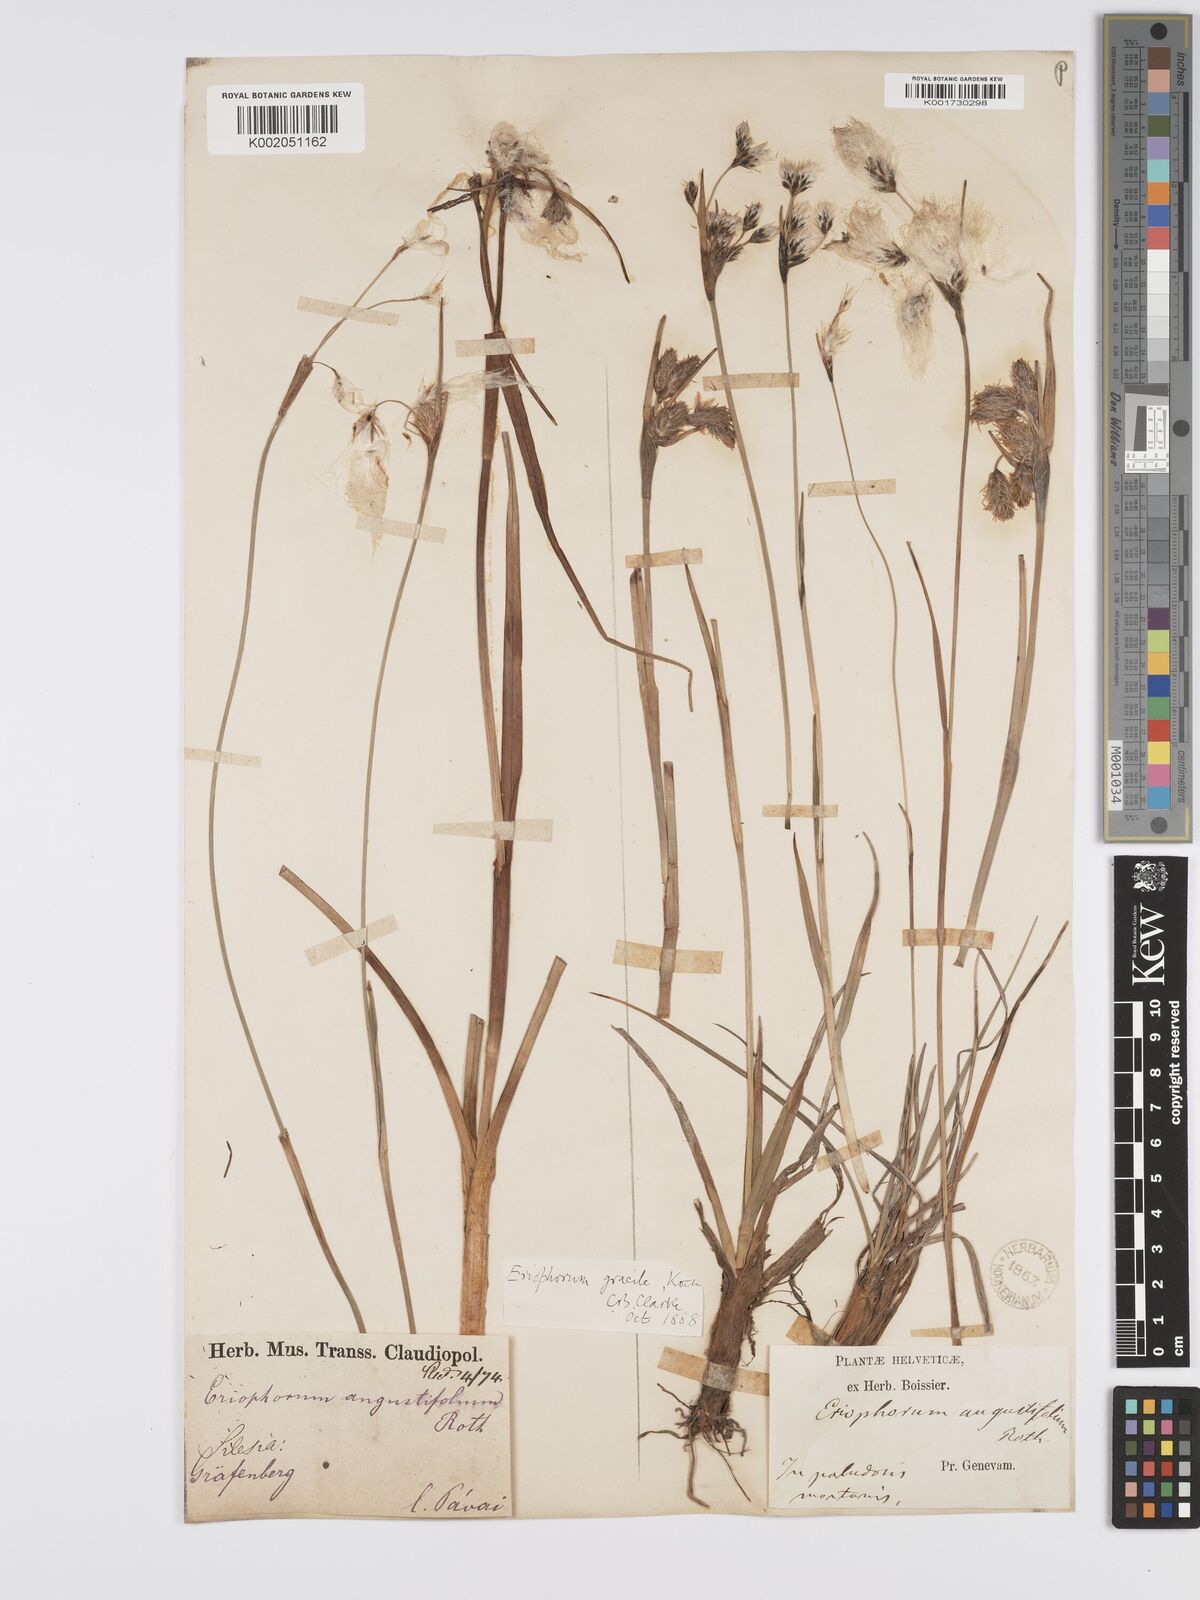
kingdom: Plantae
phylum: Tracheophyta
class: Liliopsida
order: Poales
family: Cyperaceae
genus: Eriophorum
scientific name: Eriophorum gracile
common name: Slender cottongrass
